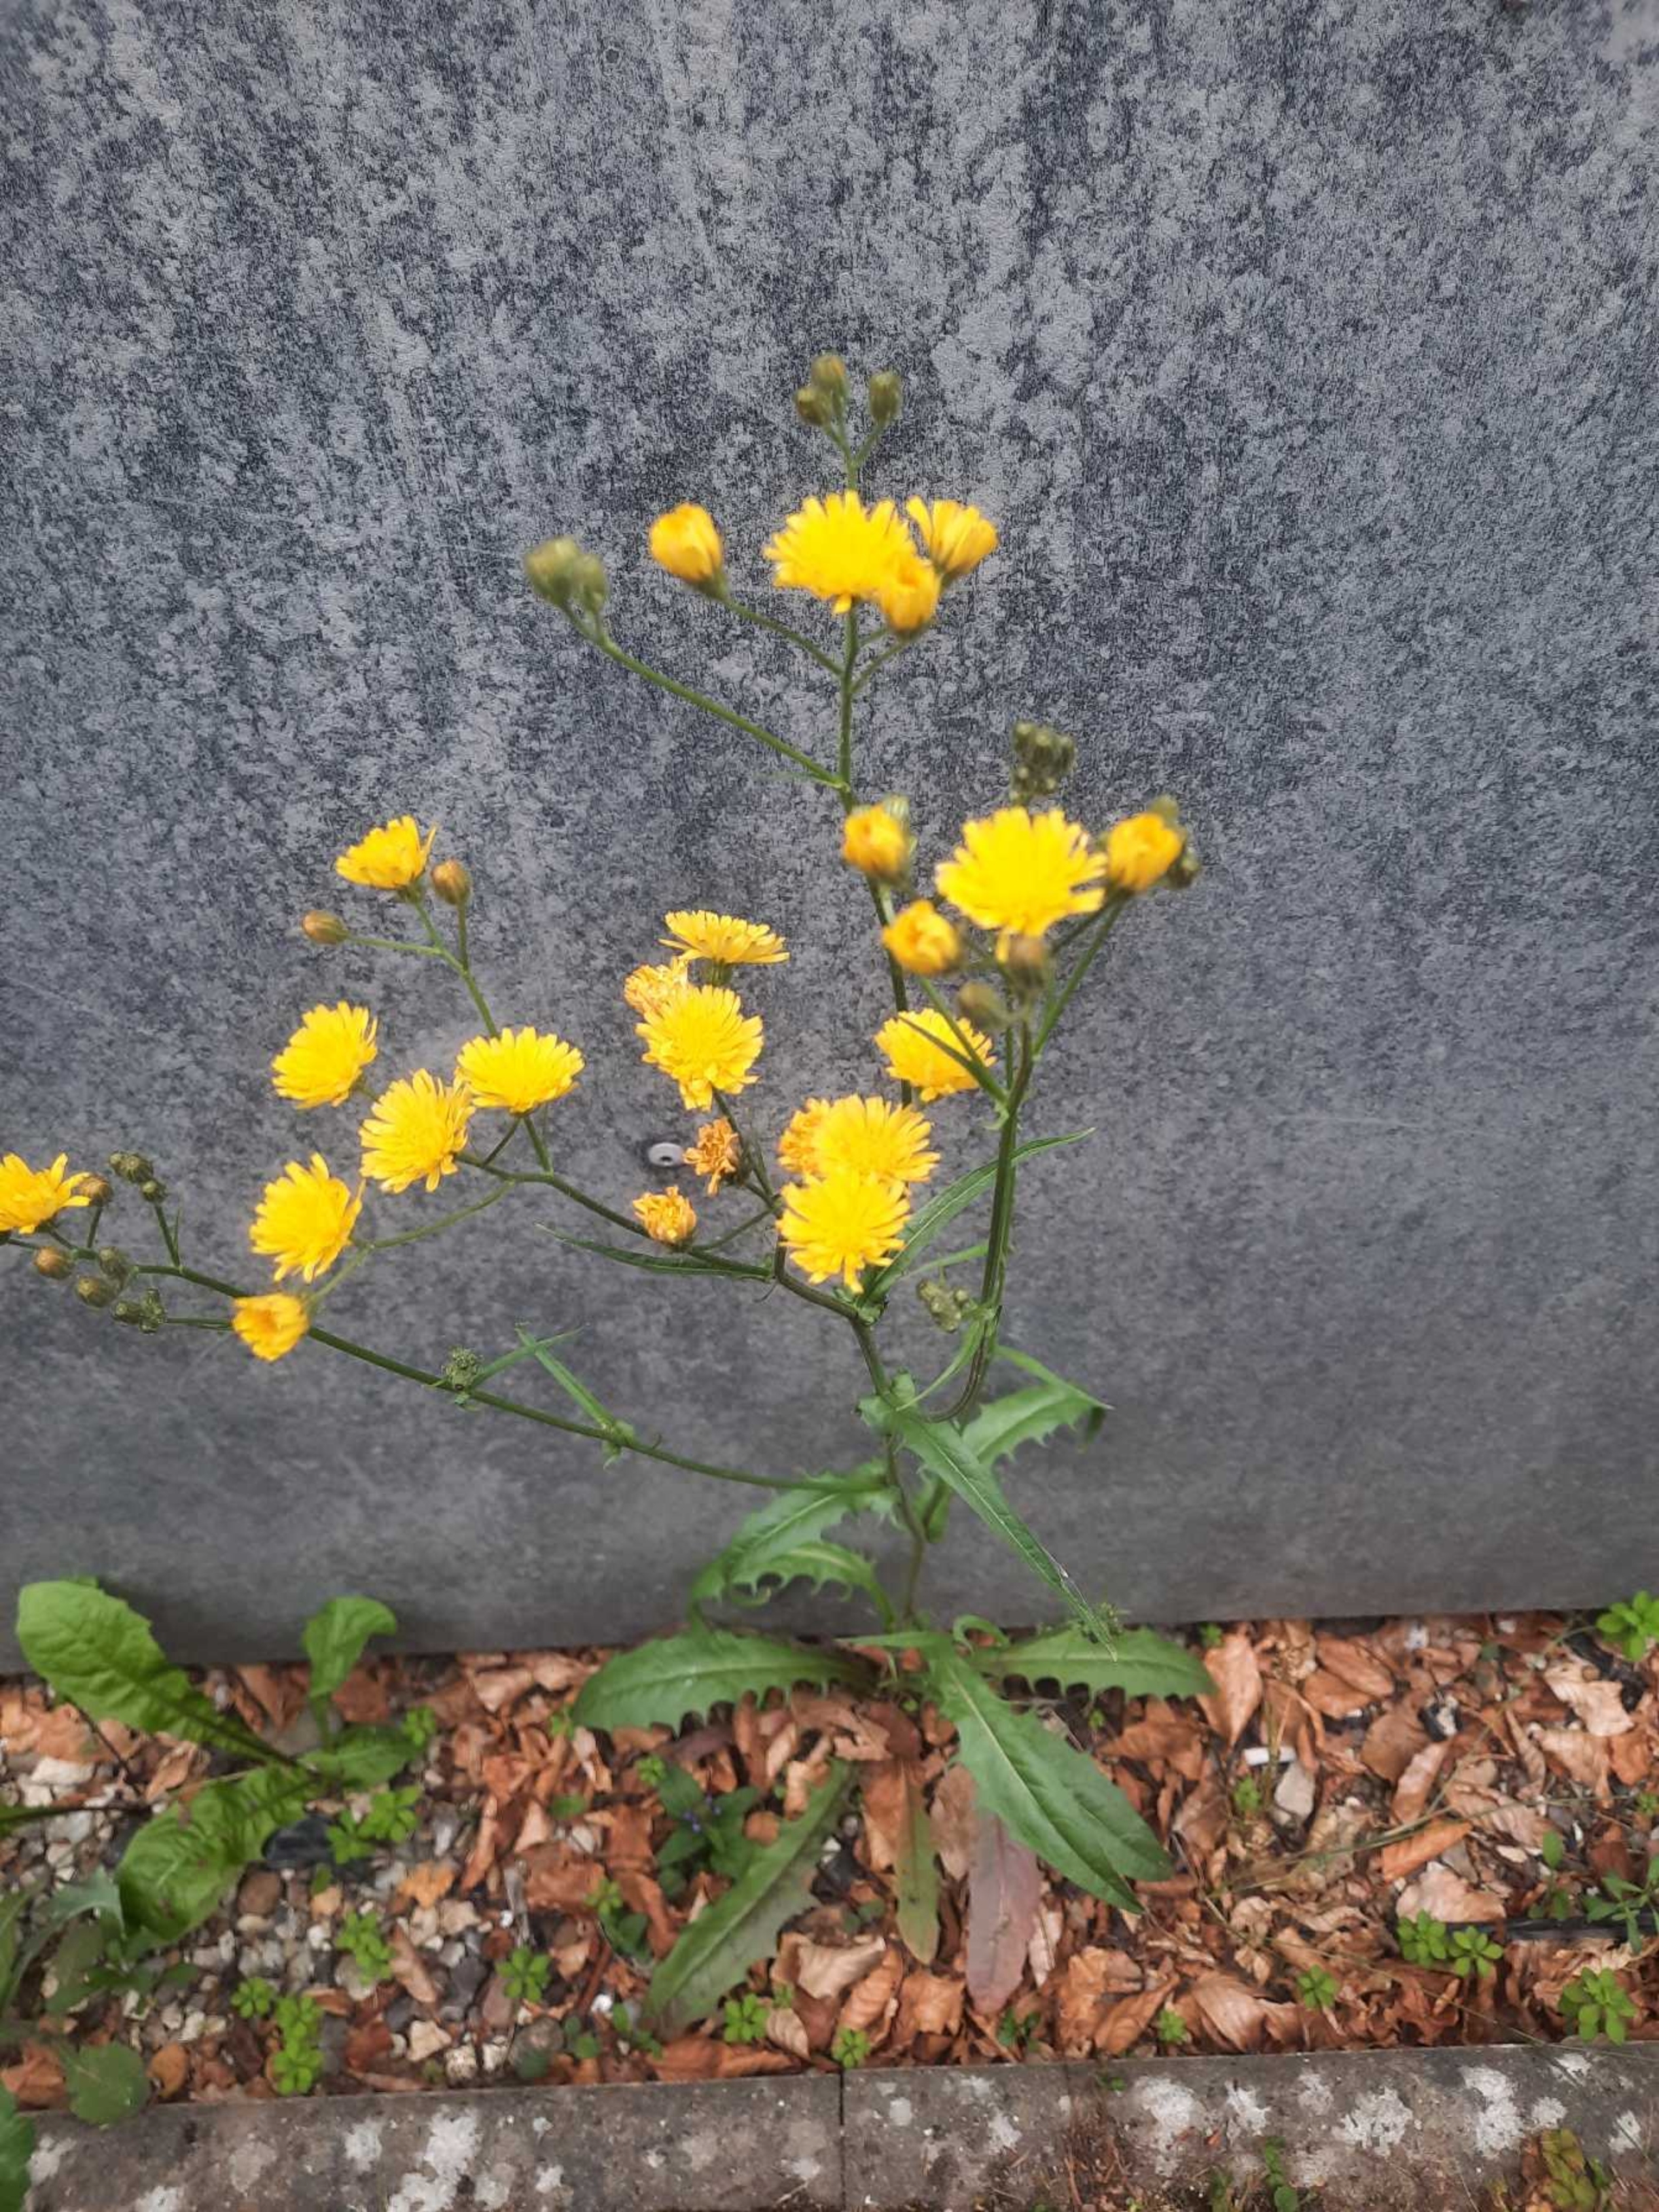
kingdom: Plantae
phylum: Tracheophyta
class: Magnoliopsida
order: Asterales
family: Asteraceae
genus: Crepis
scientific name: Crepis capillaris
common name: Grøn høgeskæg
